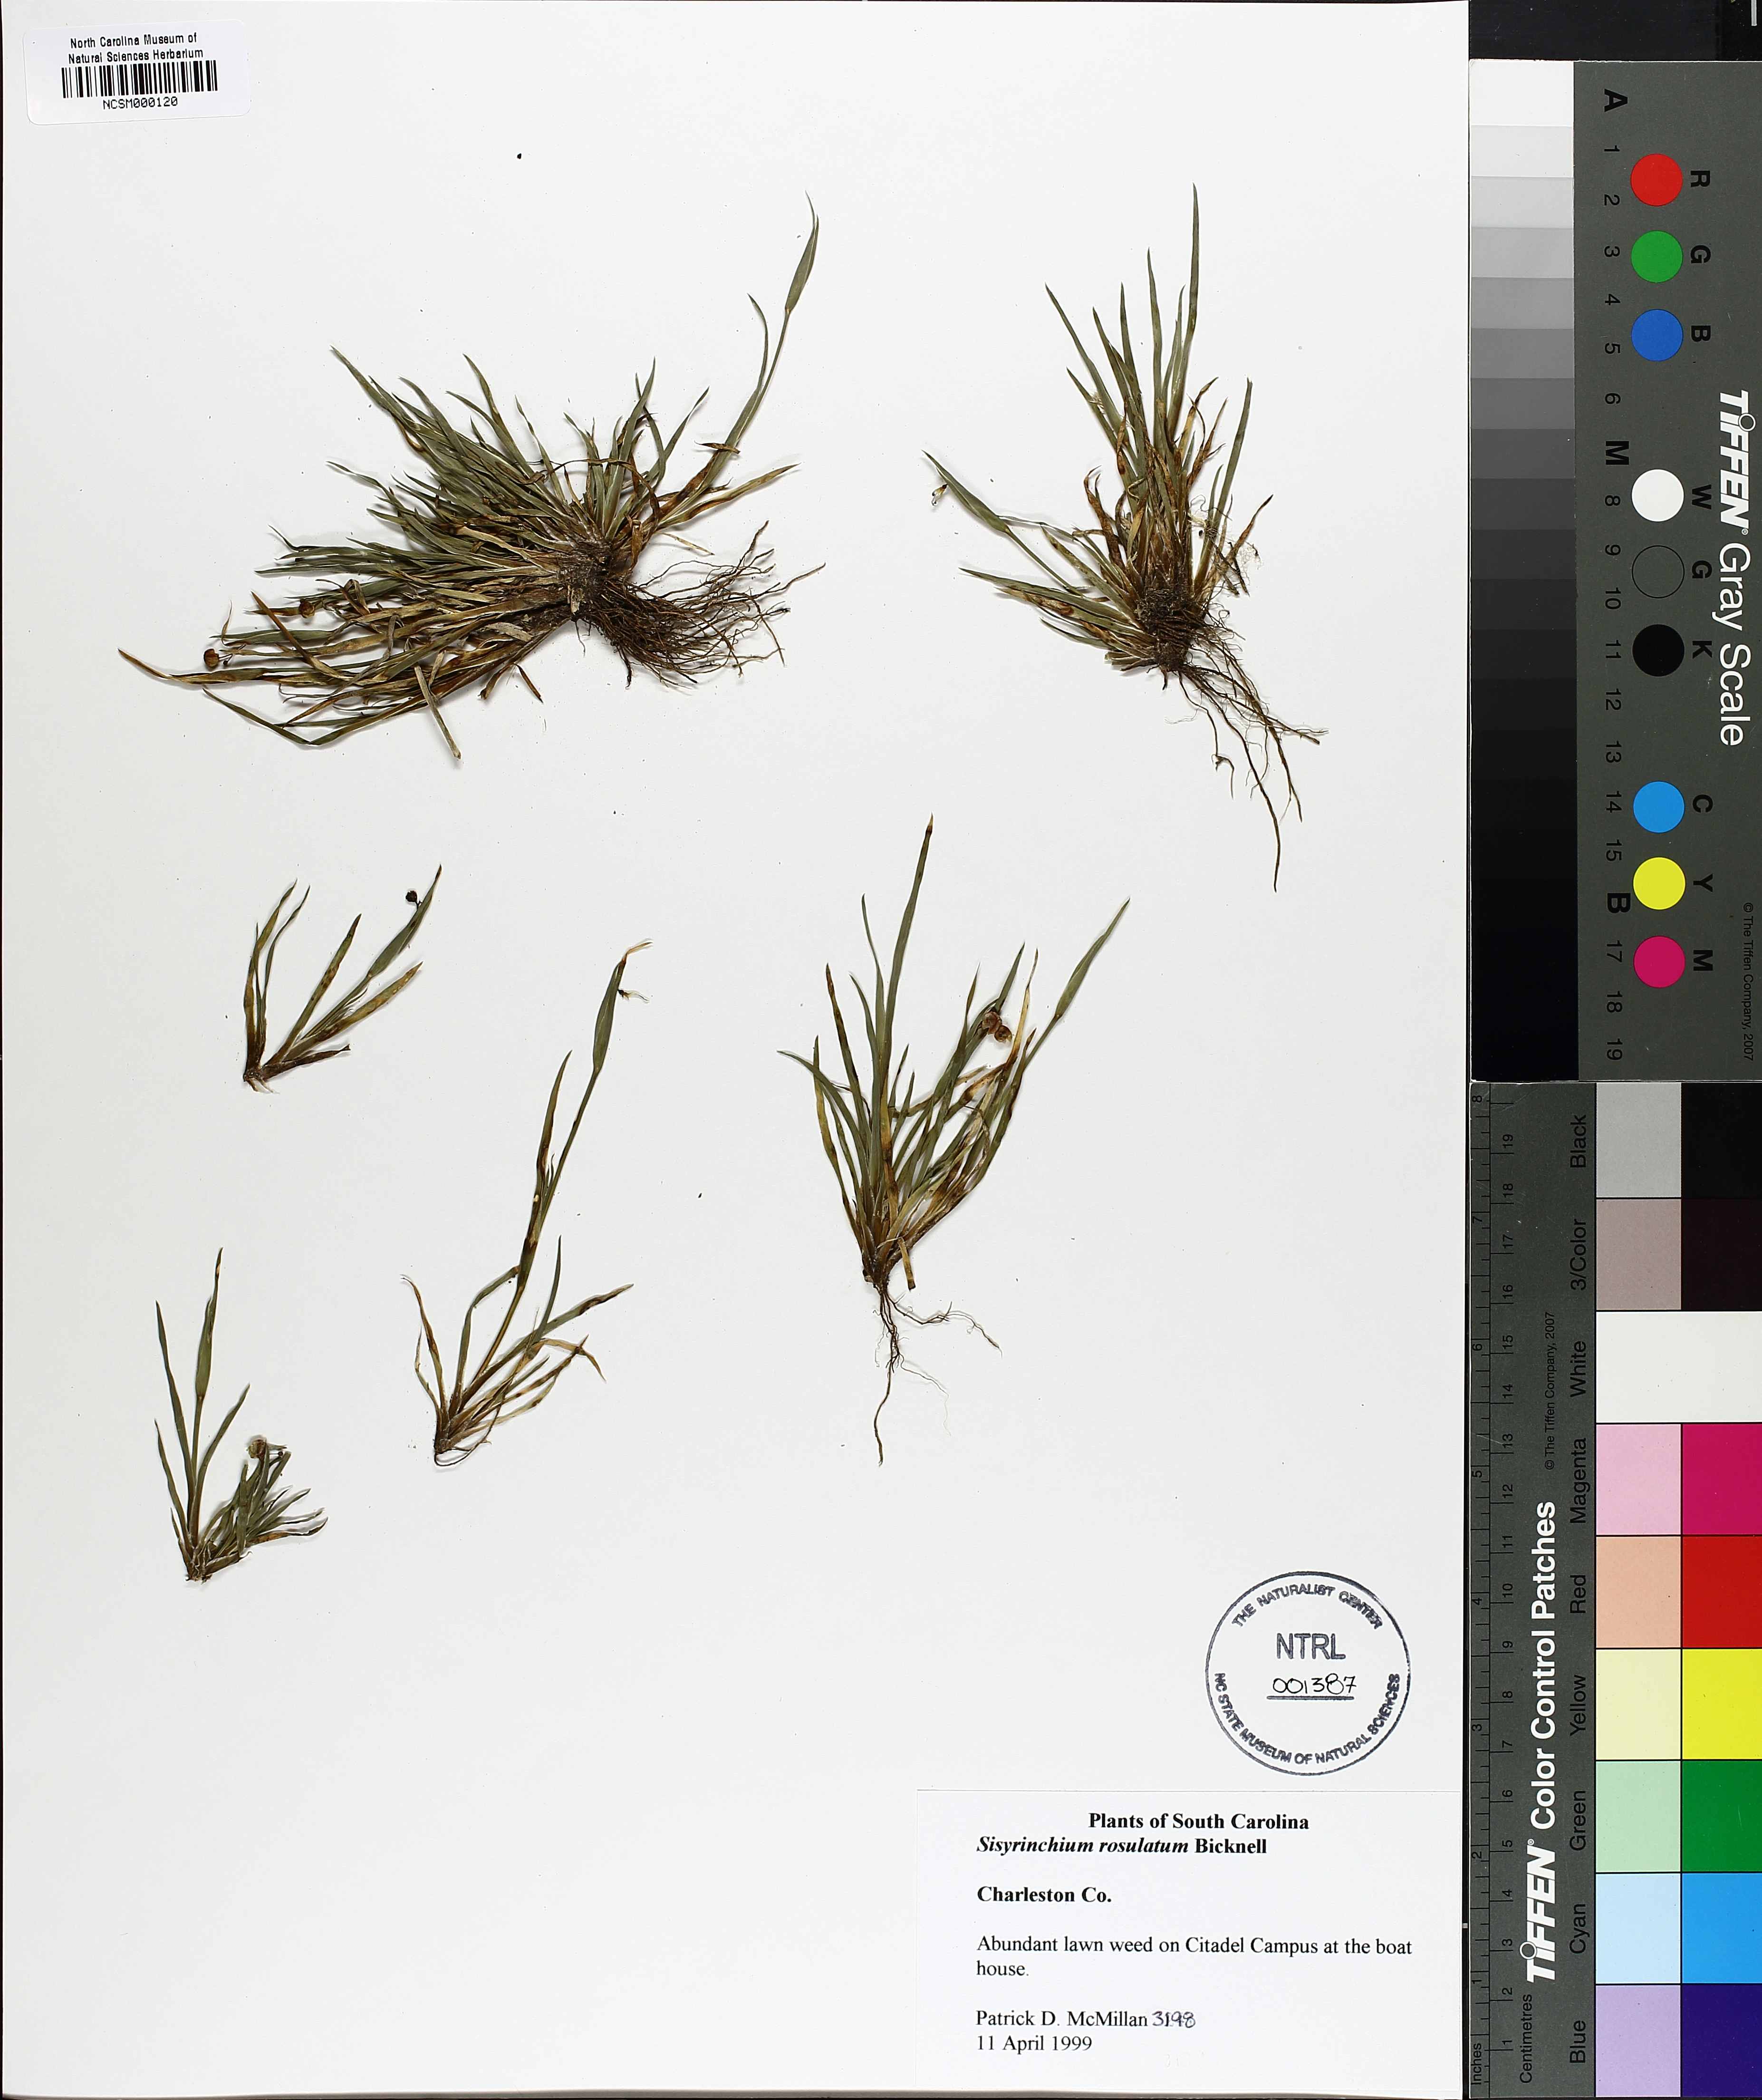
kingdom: Plantae
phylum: Tracheophyta
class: Liliopsida
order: Asparagales
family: Iridaceae
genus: Sisyrinchium
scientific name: Sisyrinchium rosulatum
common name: Annual blue-eyed grass
